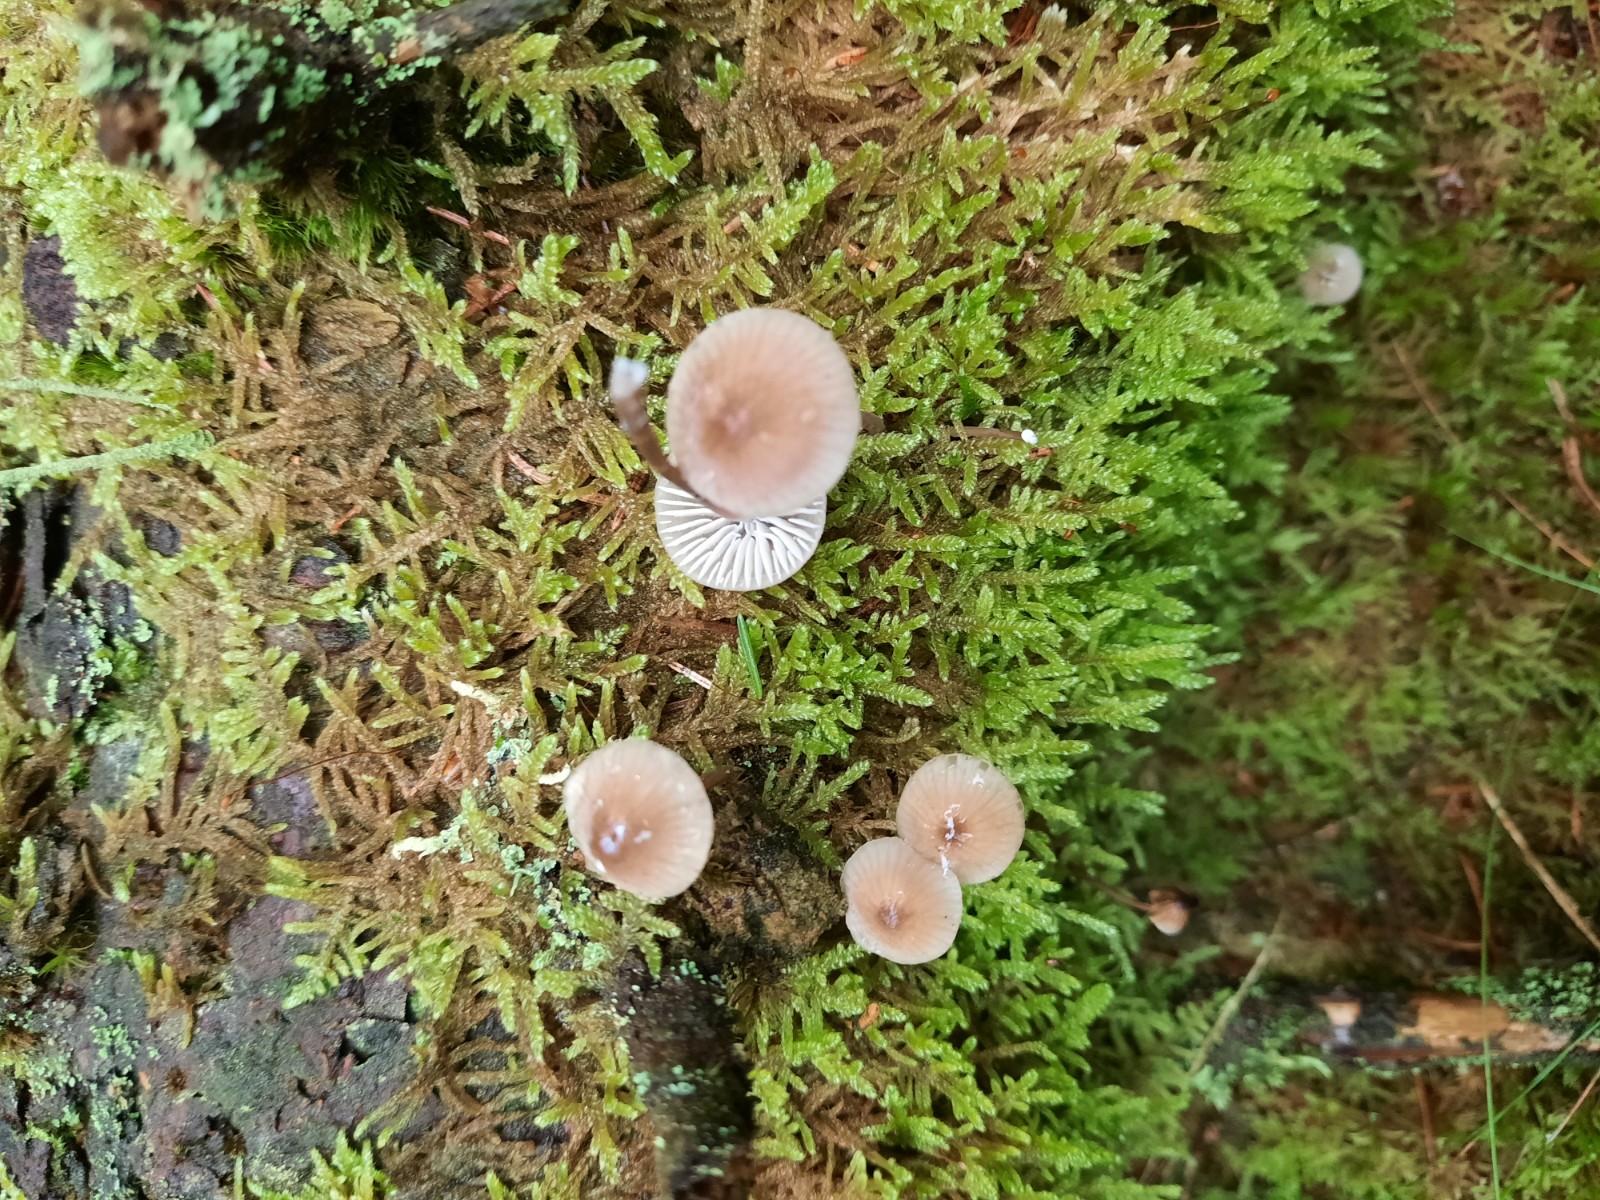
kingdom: Fungi
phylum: Basidiomycota
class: Agaricomycetes
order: Agaricales
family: Mycenaceae
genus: Mycena
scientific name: Mycena galopus
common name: hvidmælket huesvamp
